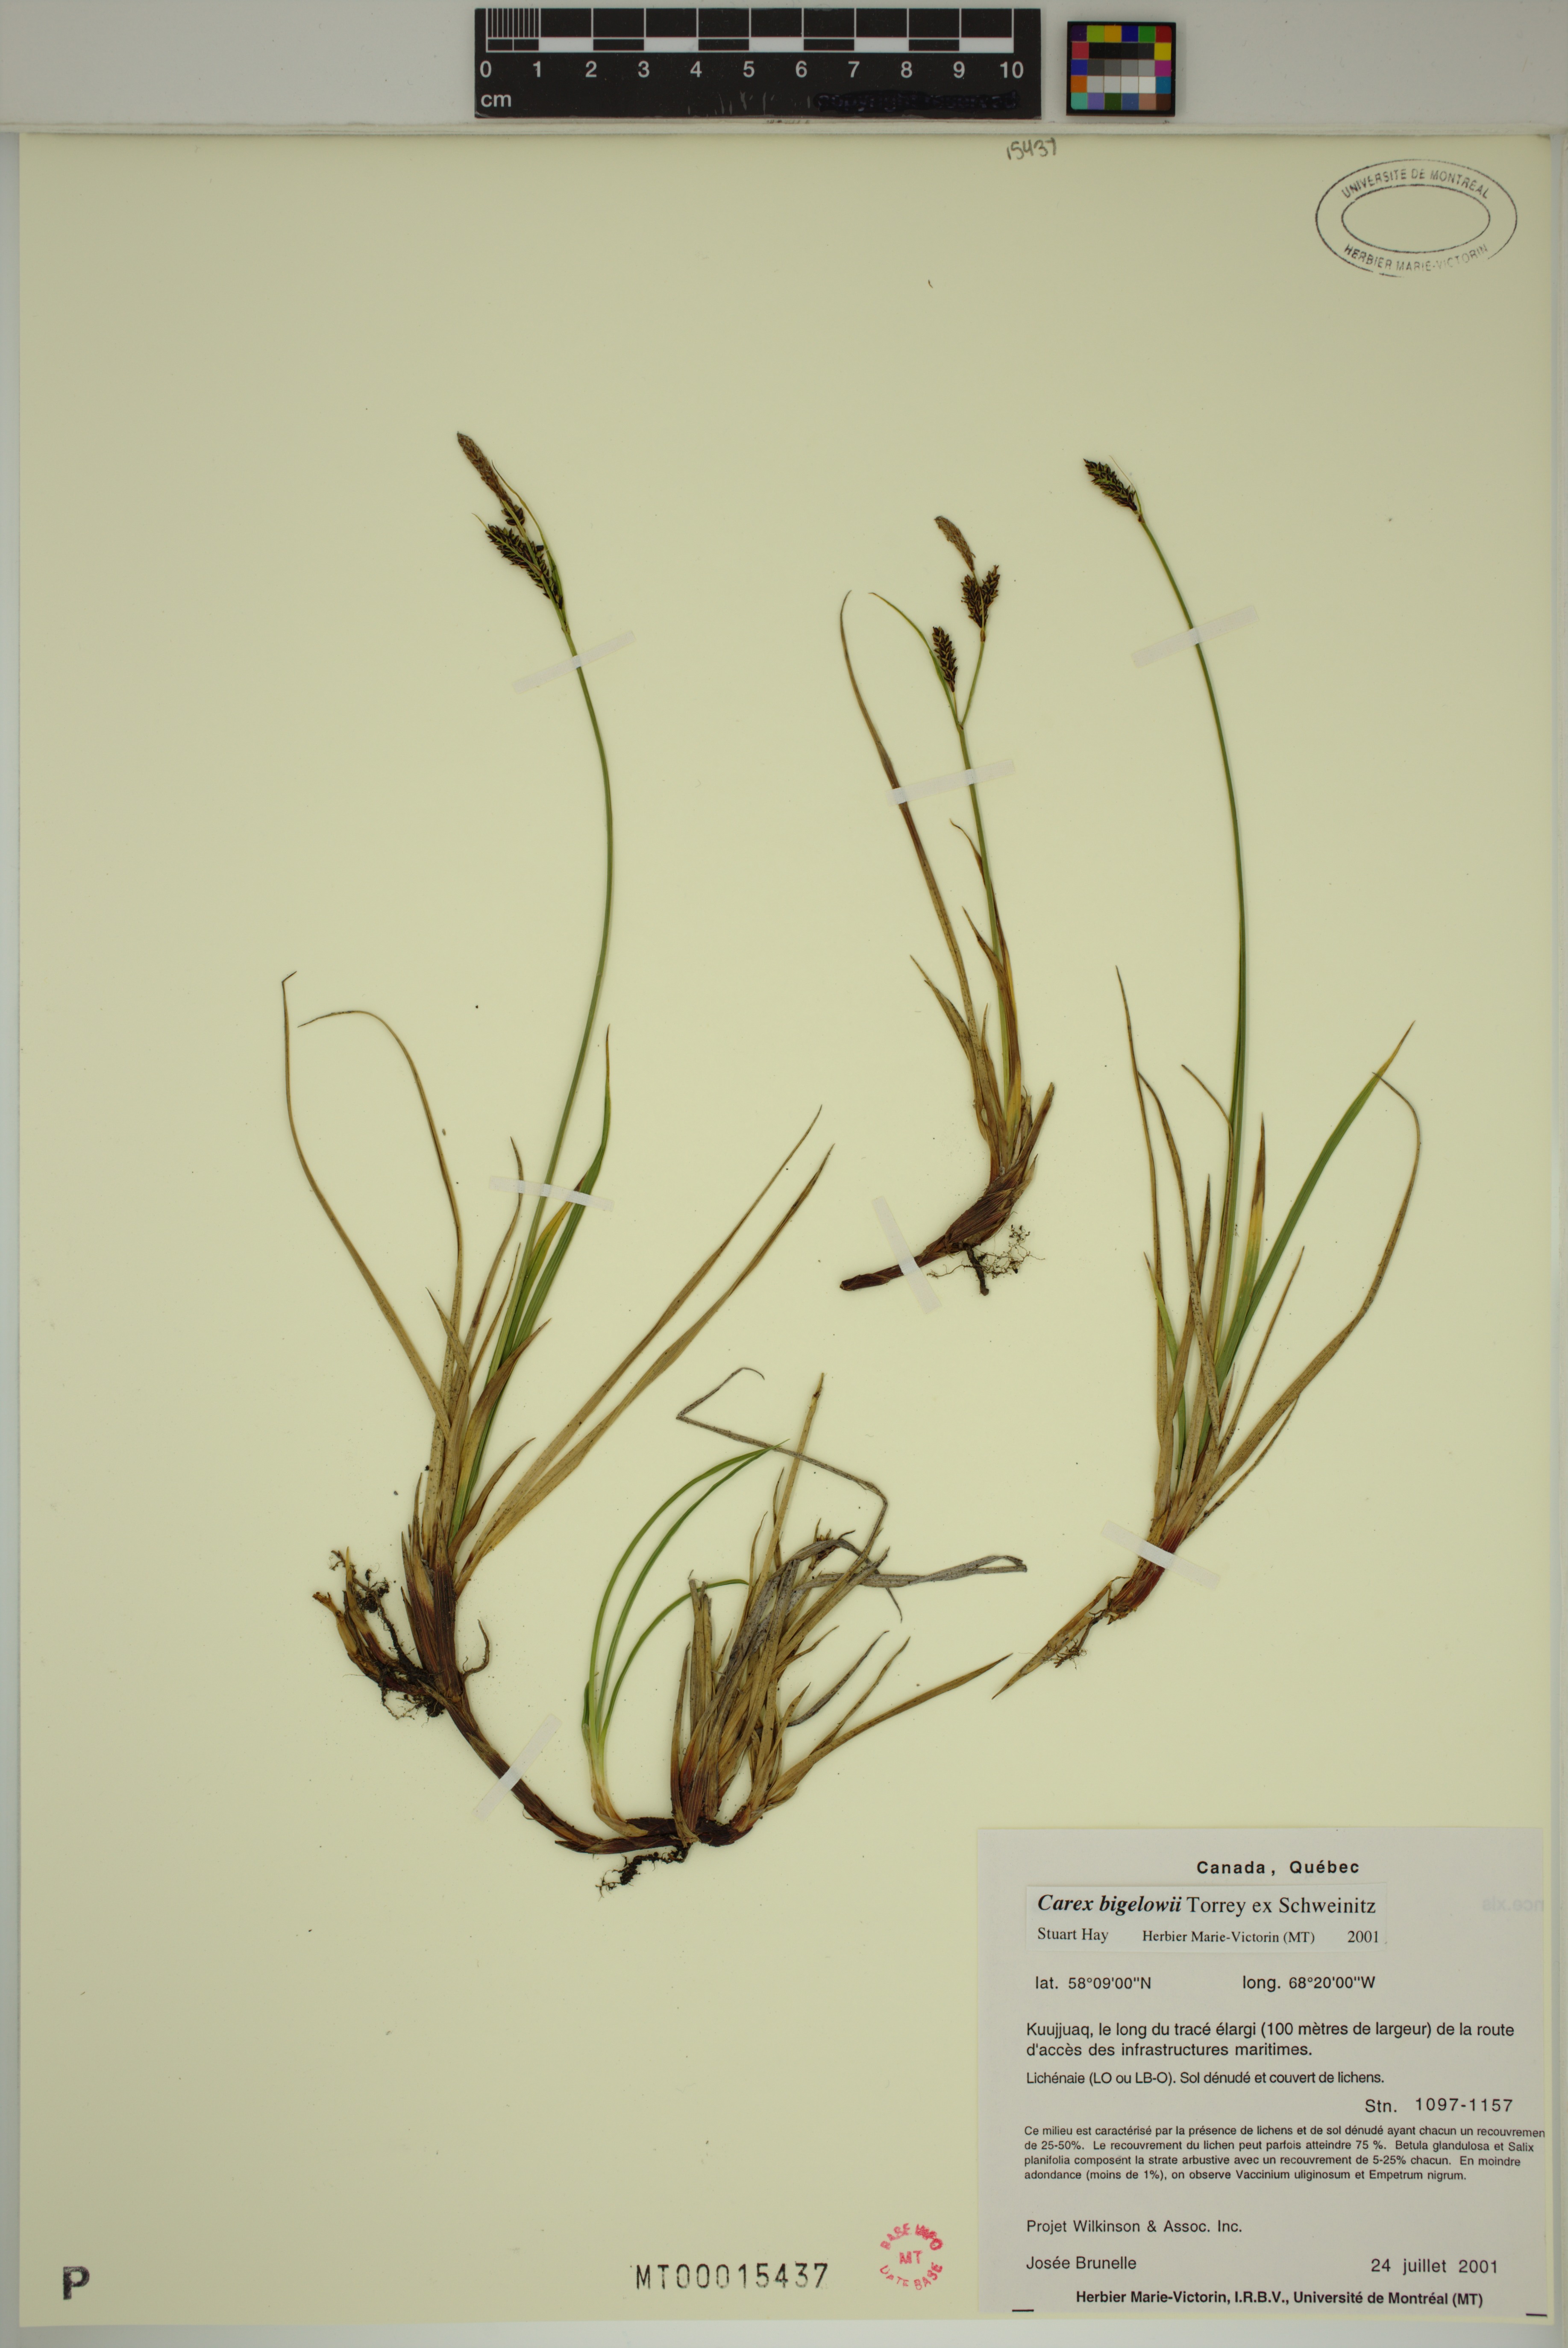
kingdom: Plantae
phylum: Tracheophyta
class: Liliopsida
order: Poales
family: Cyperaceae
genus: Carex
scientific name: Carex bigelowii
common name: Stiff sedge
